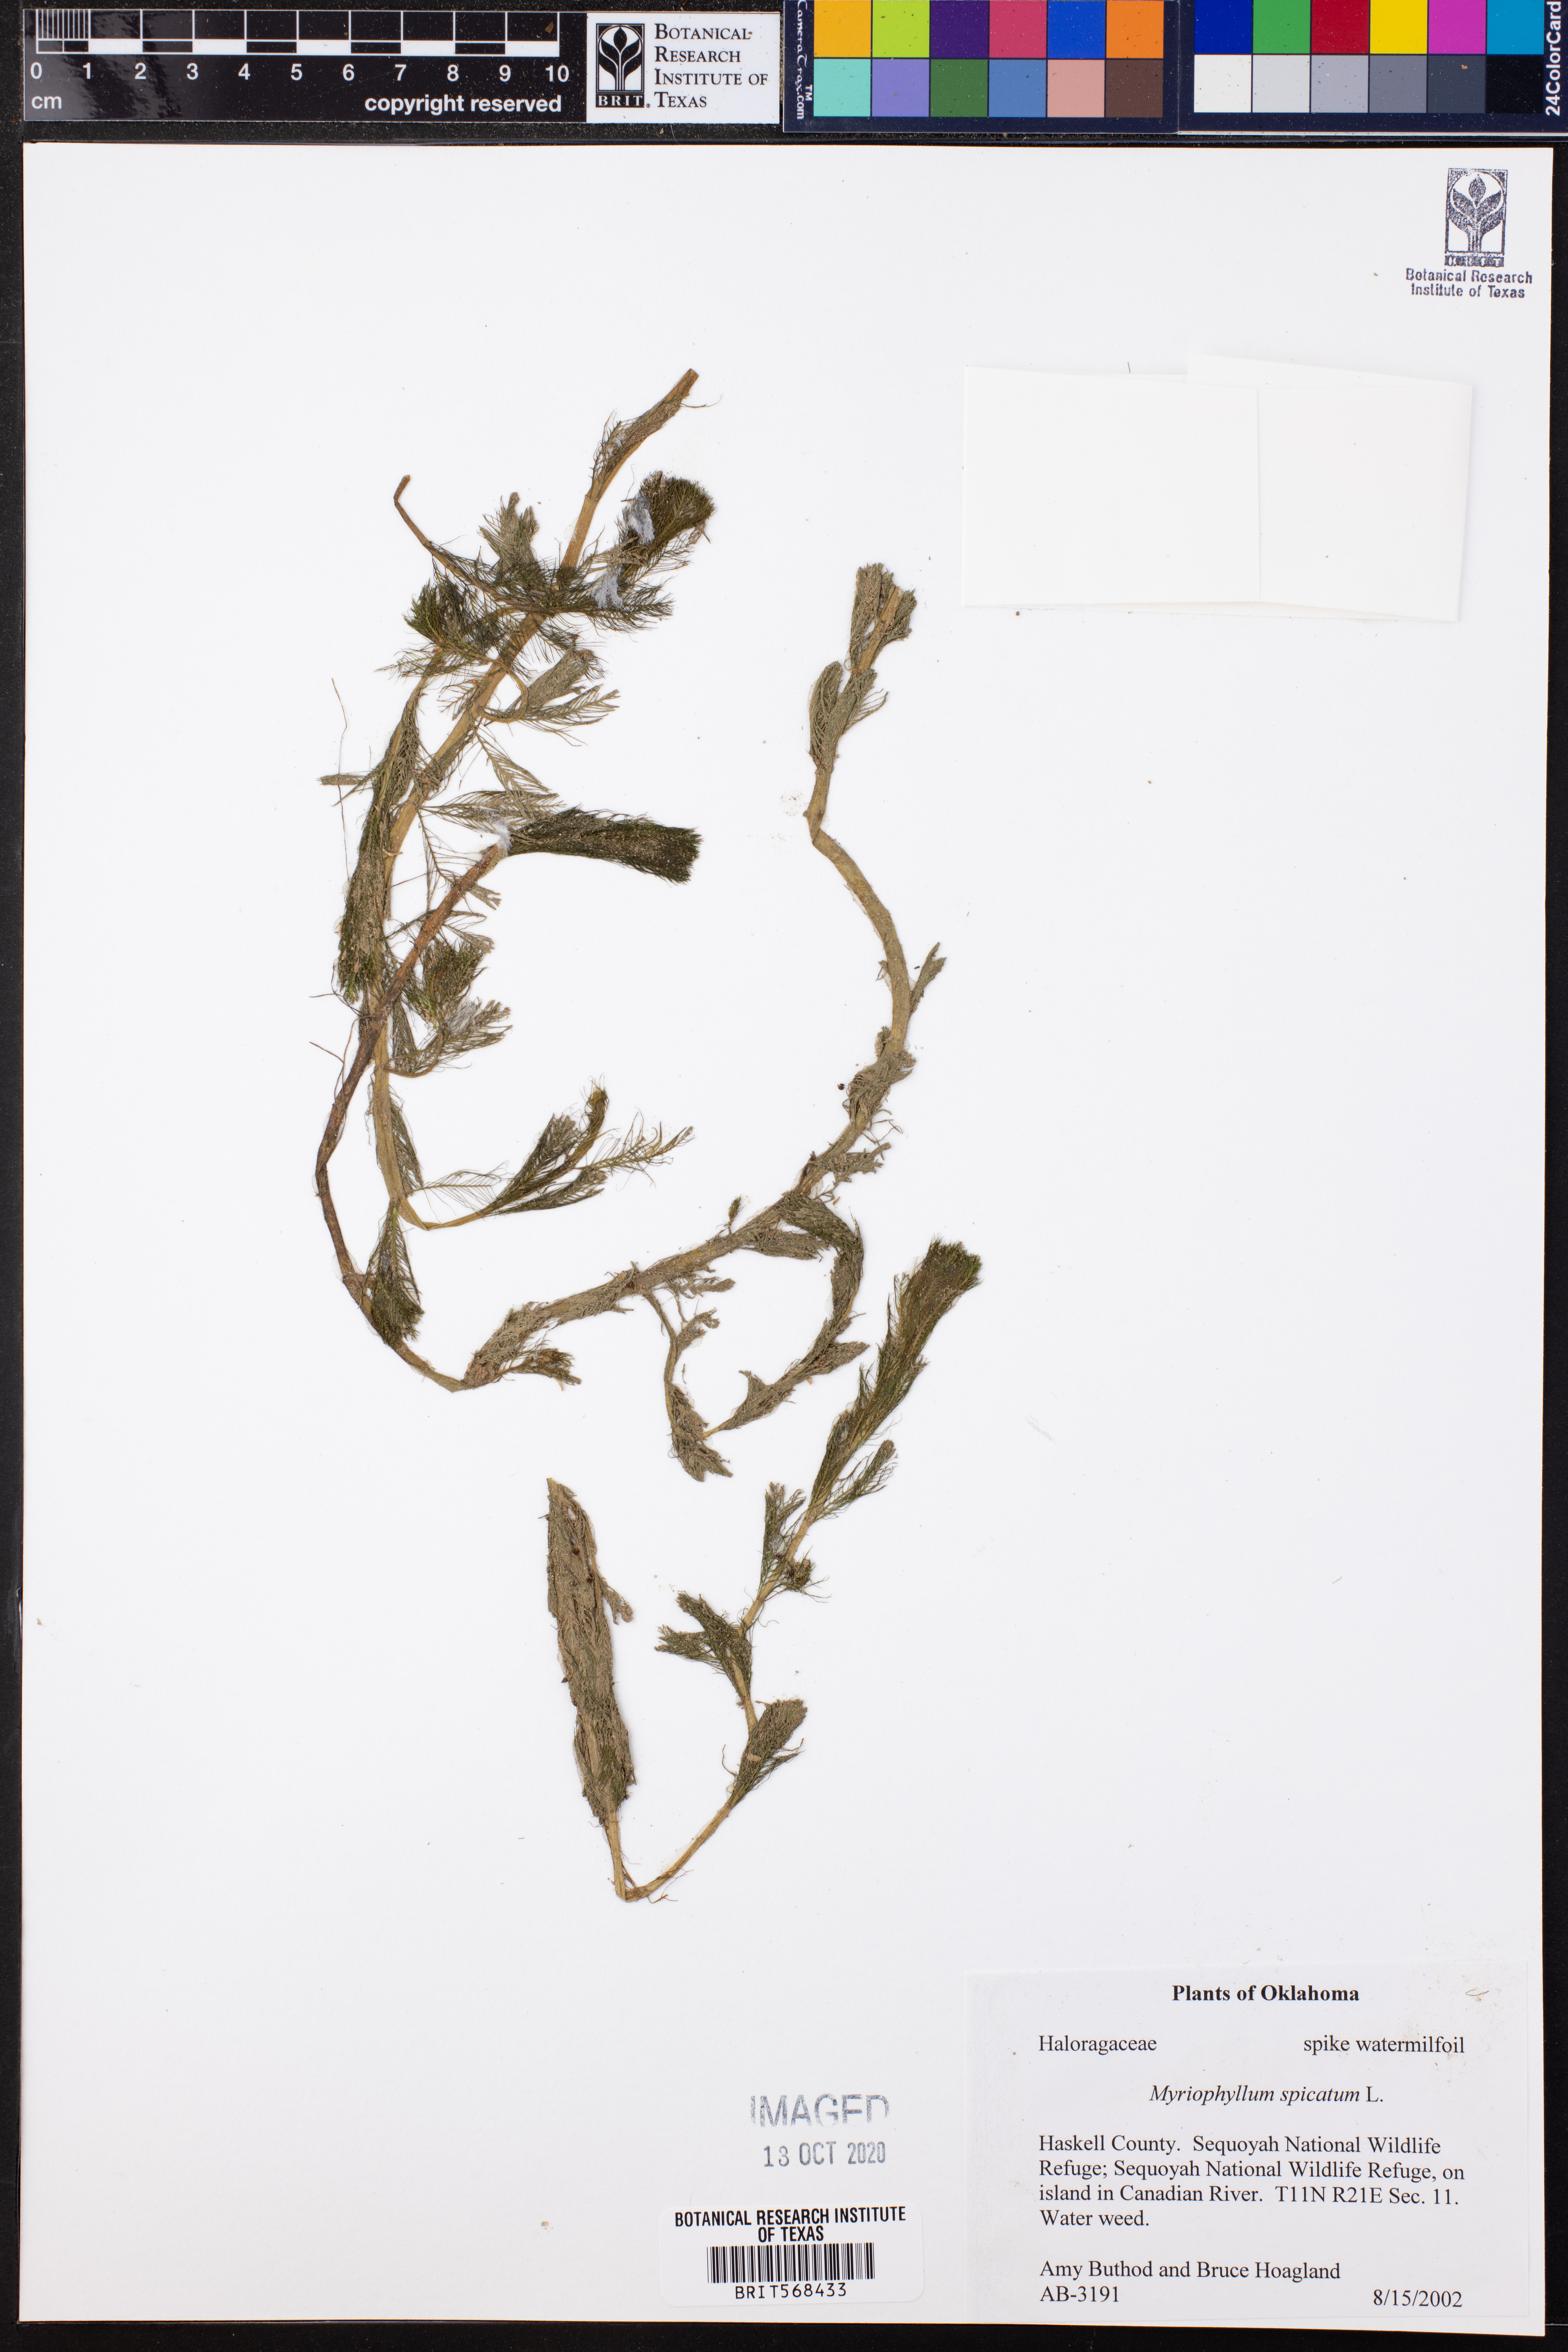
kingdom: Plantae
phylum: Tracheophyta
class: Magnoliopsida
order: Saxifragales
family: Haloragaceae
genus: Myriophyllum
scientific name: Myriophyllum spicatum
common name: Spiked water-milfoil
